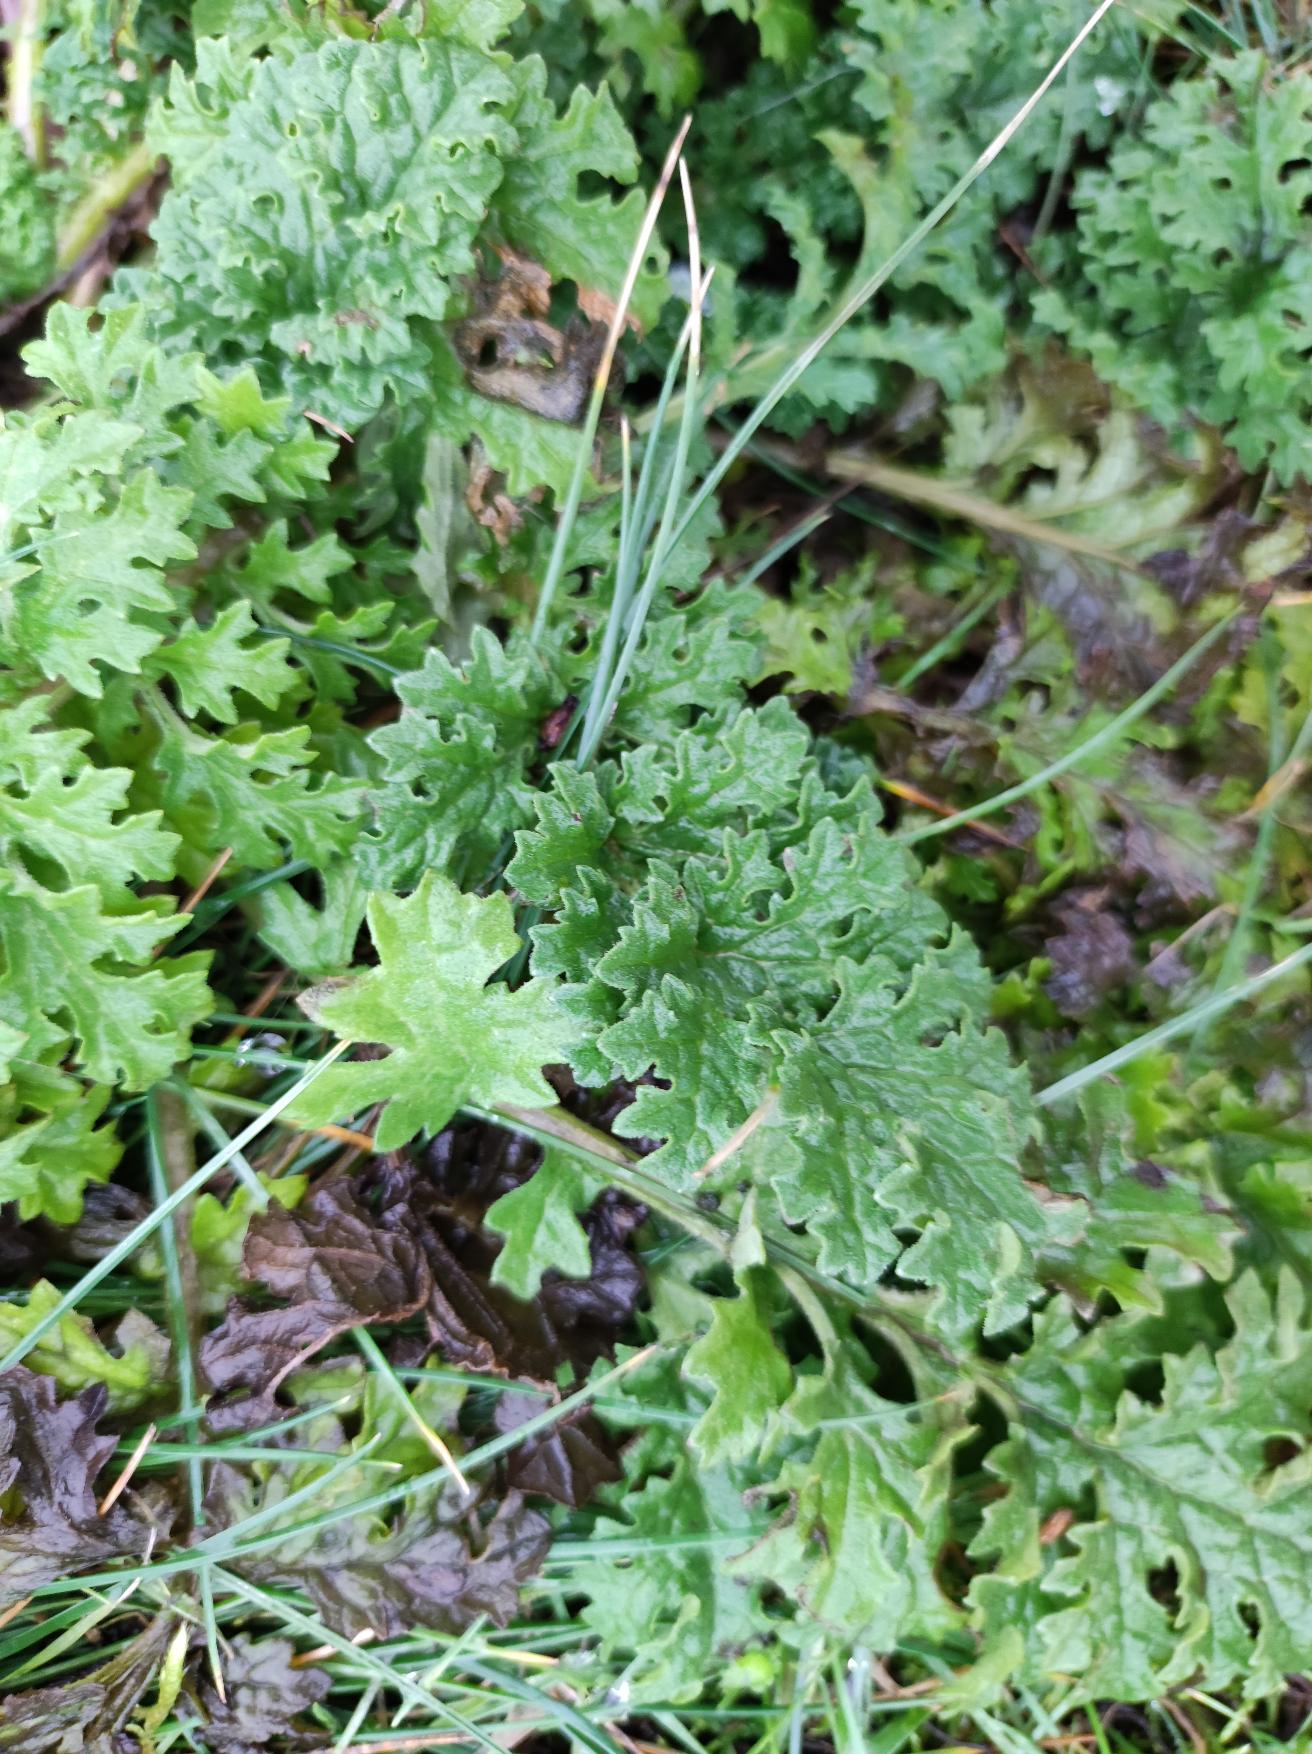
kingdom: Plantae
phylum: Tracheophyta
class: Magnoliopsida
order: Asterales
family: Asteraceae
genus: Jacobaea
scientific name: Jacobaea vulgaris
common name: Eng-brandbæger
